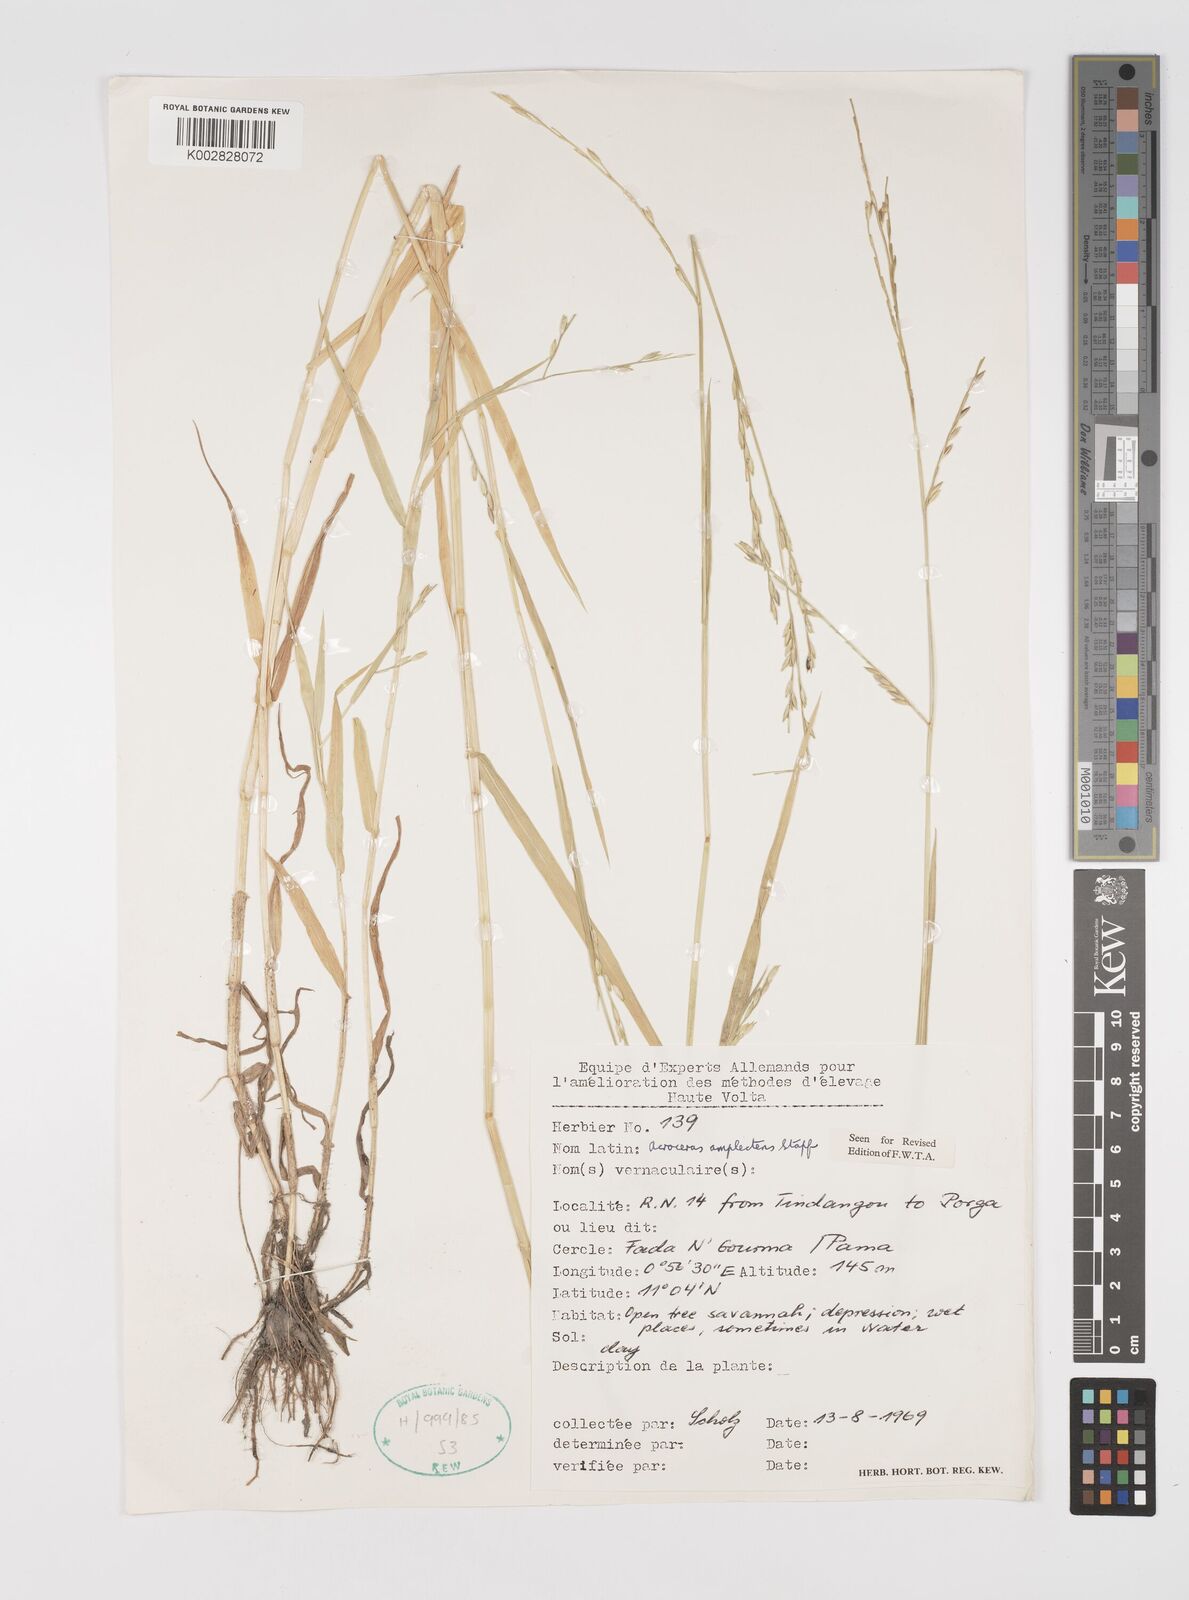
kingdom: Plantae
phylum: Tracheophyta
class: Liliopsida
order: Poales
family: Poaceae
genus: Acroceras
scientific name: Acroceras amplectens
